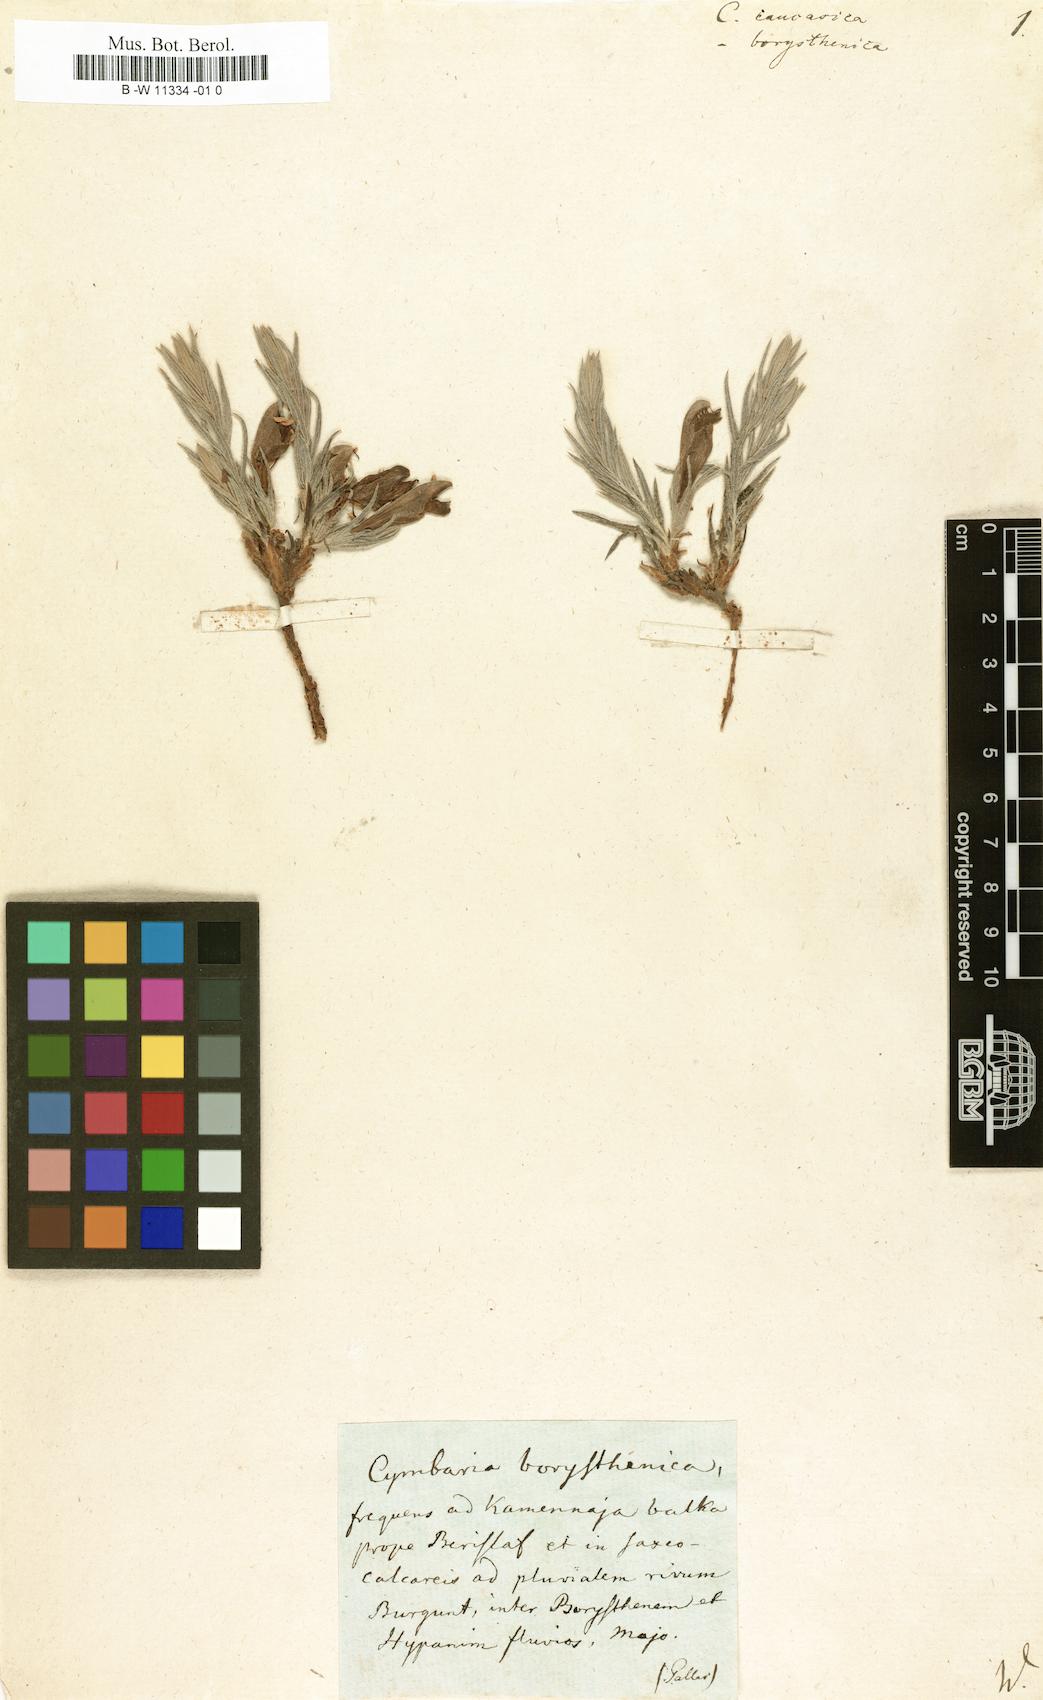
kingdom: Plantae
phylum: Tracheophyta
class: Magnoliopsida
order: Lamiales
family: Scrophulariaceae
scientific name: Scrophulariaceae
